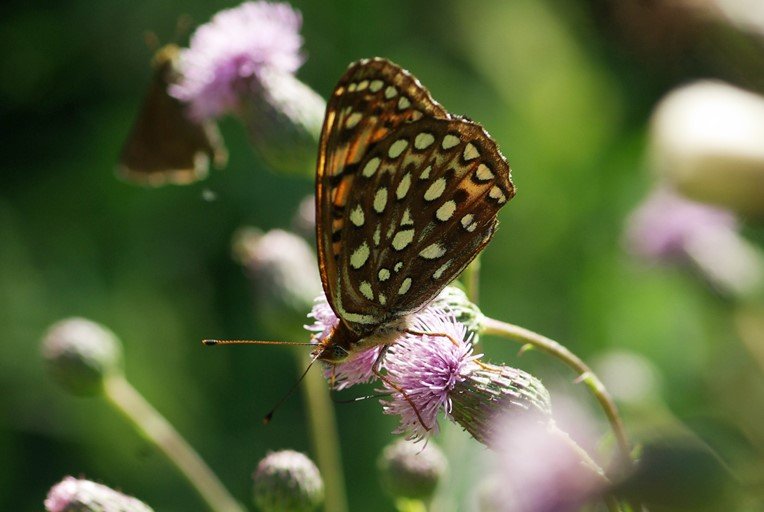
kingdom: Animalia
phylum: Arthropoda
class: Insecta
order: Lepidoptera
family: Nymphalidae
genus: Speyeria
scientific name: Speyeria atlantis
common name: Atlantis Fritillary
